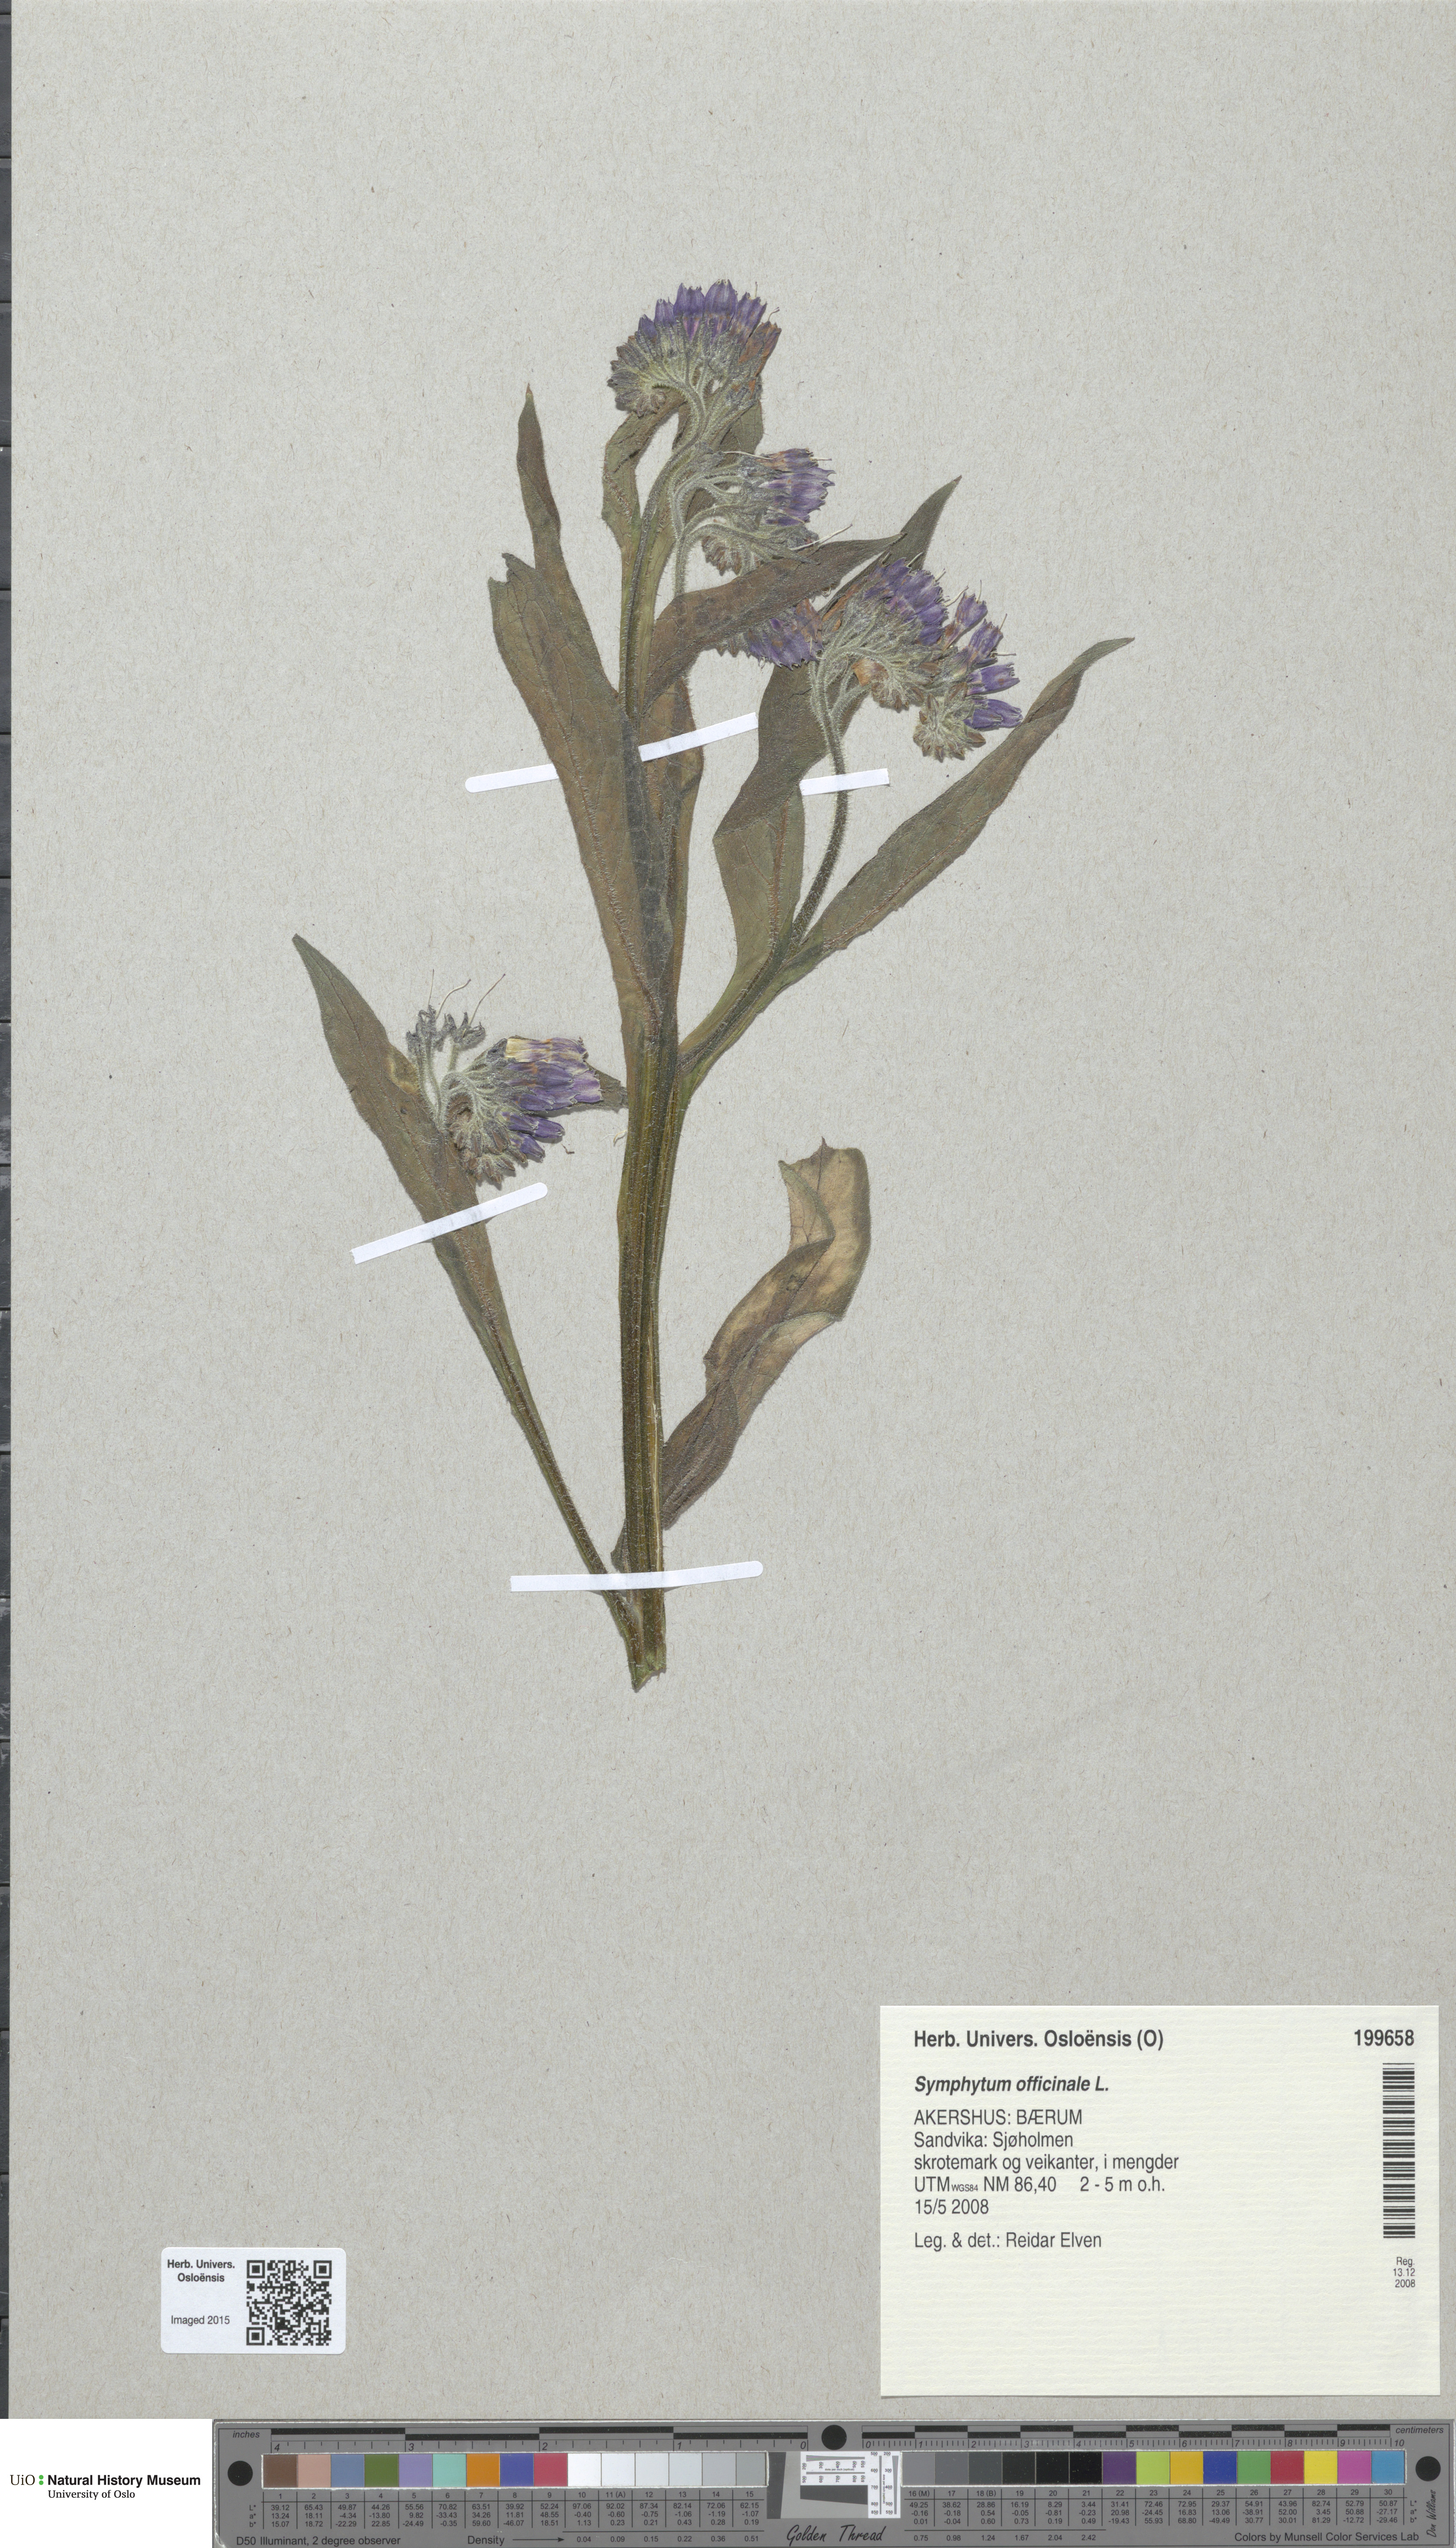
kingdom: Plantae
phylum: Tracheophyta
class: Magnoliopsida
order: Boraginales
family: Boraginaceae
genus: Symphytum
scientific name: Symphytum officinale
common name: Common comfrey
